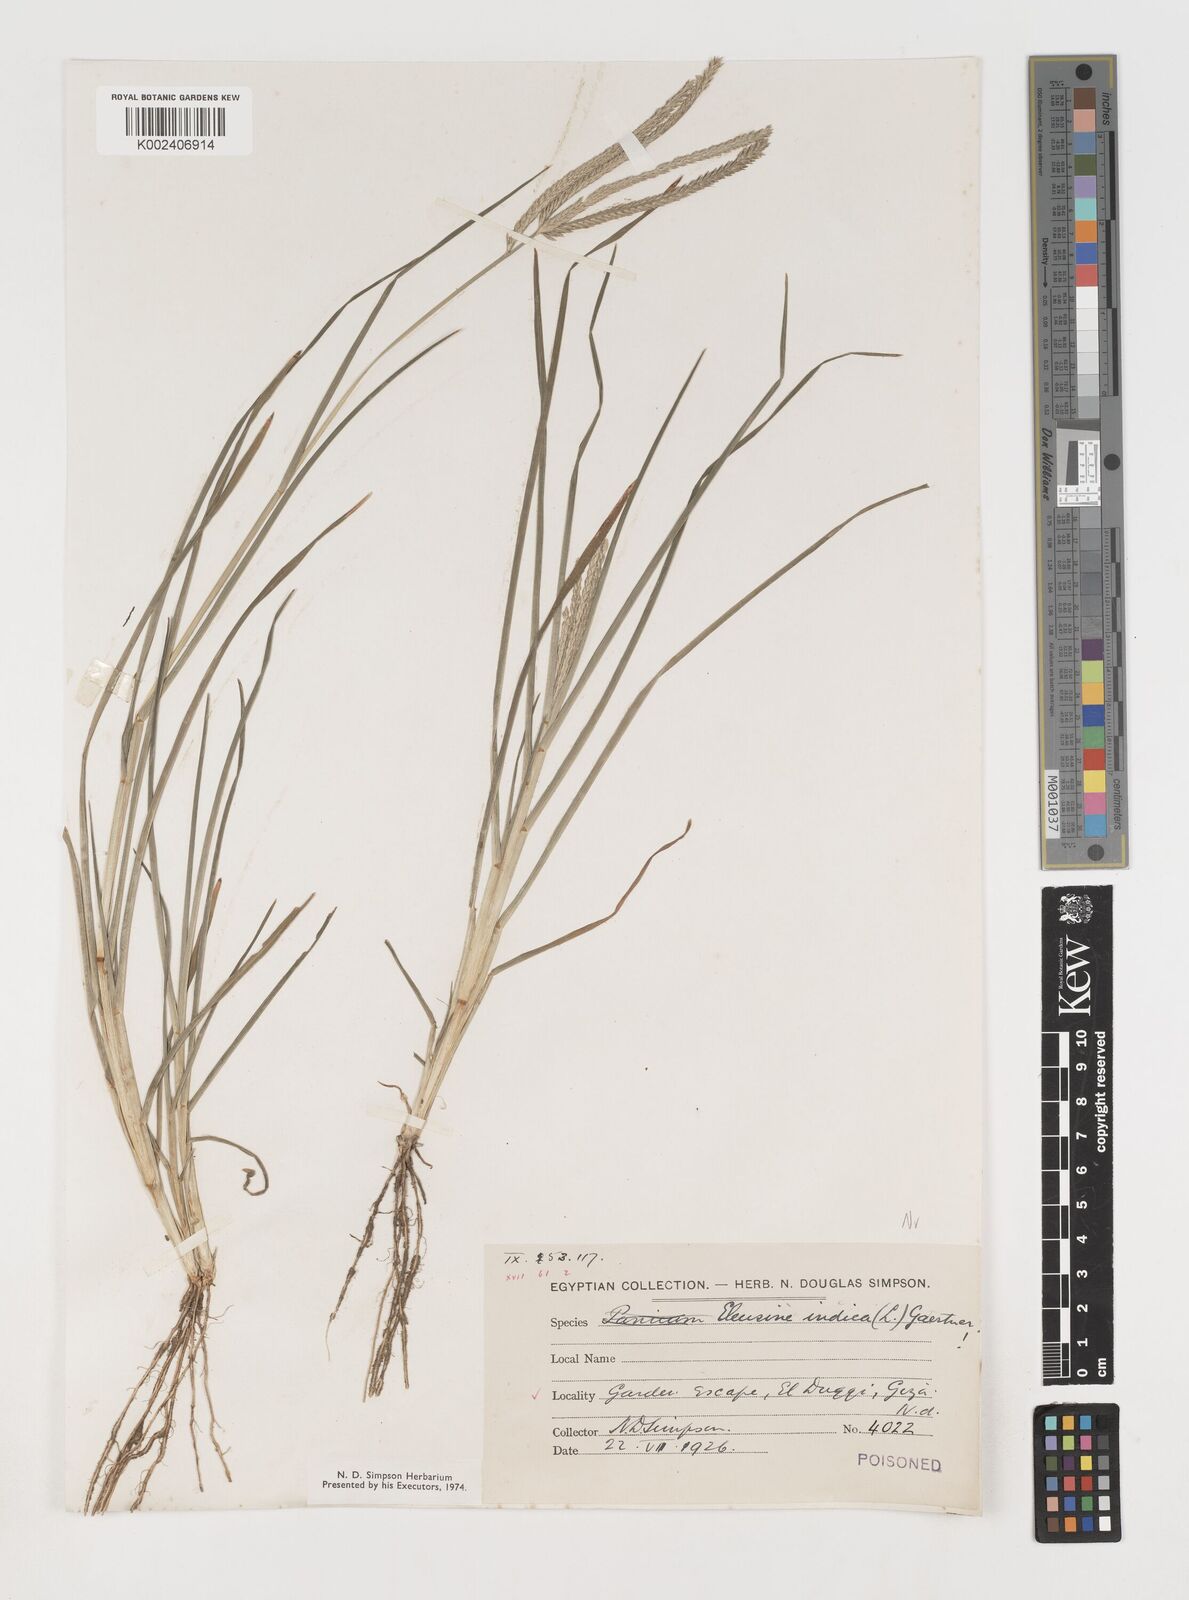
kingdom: Plantae
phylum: Tracheophyta
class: Liliopsida
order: Poales
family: Poaceae
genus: Eleusine
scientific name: Eleusine indica
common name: Yard-grass
